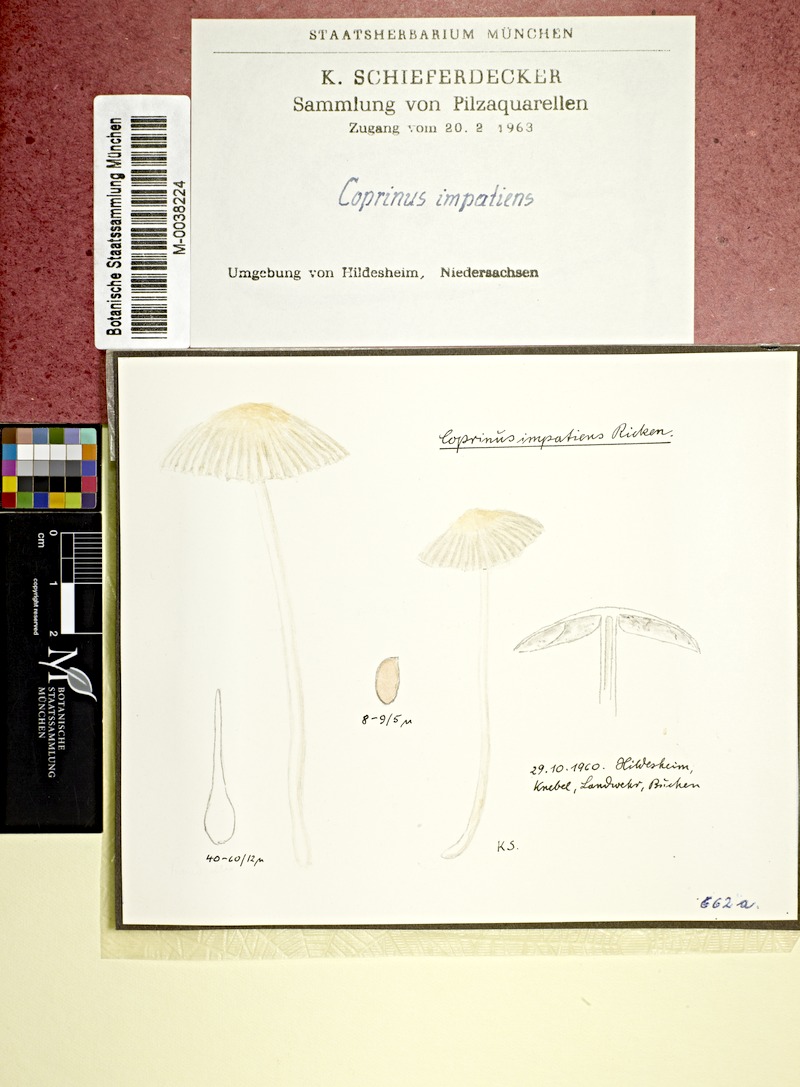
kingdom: Fungi
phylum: Basidiomycota
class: Agaricomycetes
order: Agaricales
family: Psathyrellaceae
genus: Tulosesus
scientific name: Tulosesus impatiens
